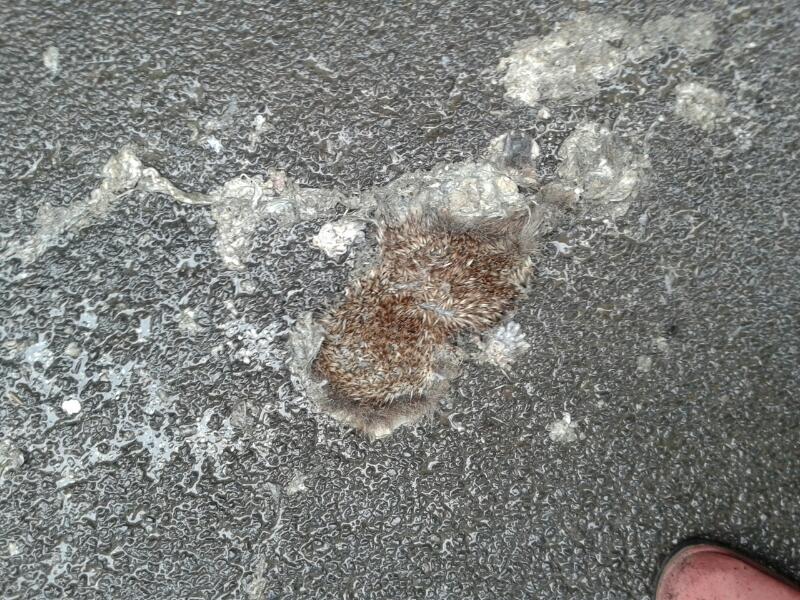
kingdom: Animalia
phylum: Chordata
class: Mammalia
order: Erinaceomorpha
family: Erinaceidae
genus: Erinaceus
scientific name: Erinaceus
